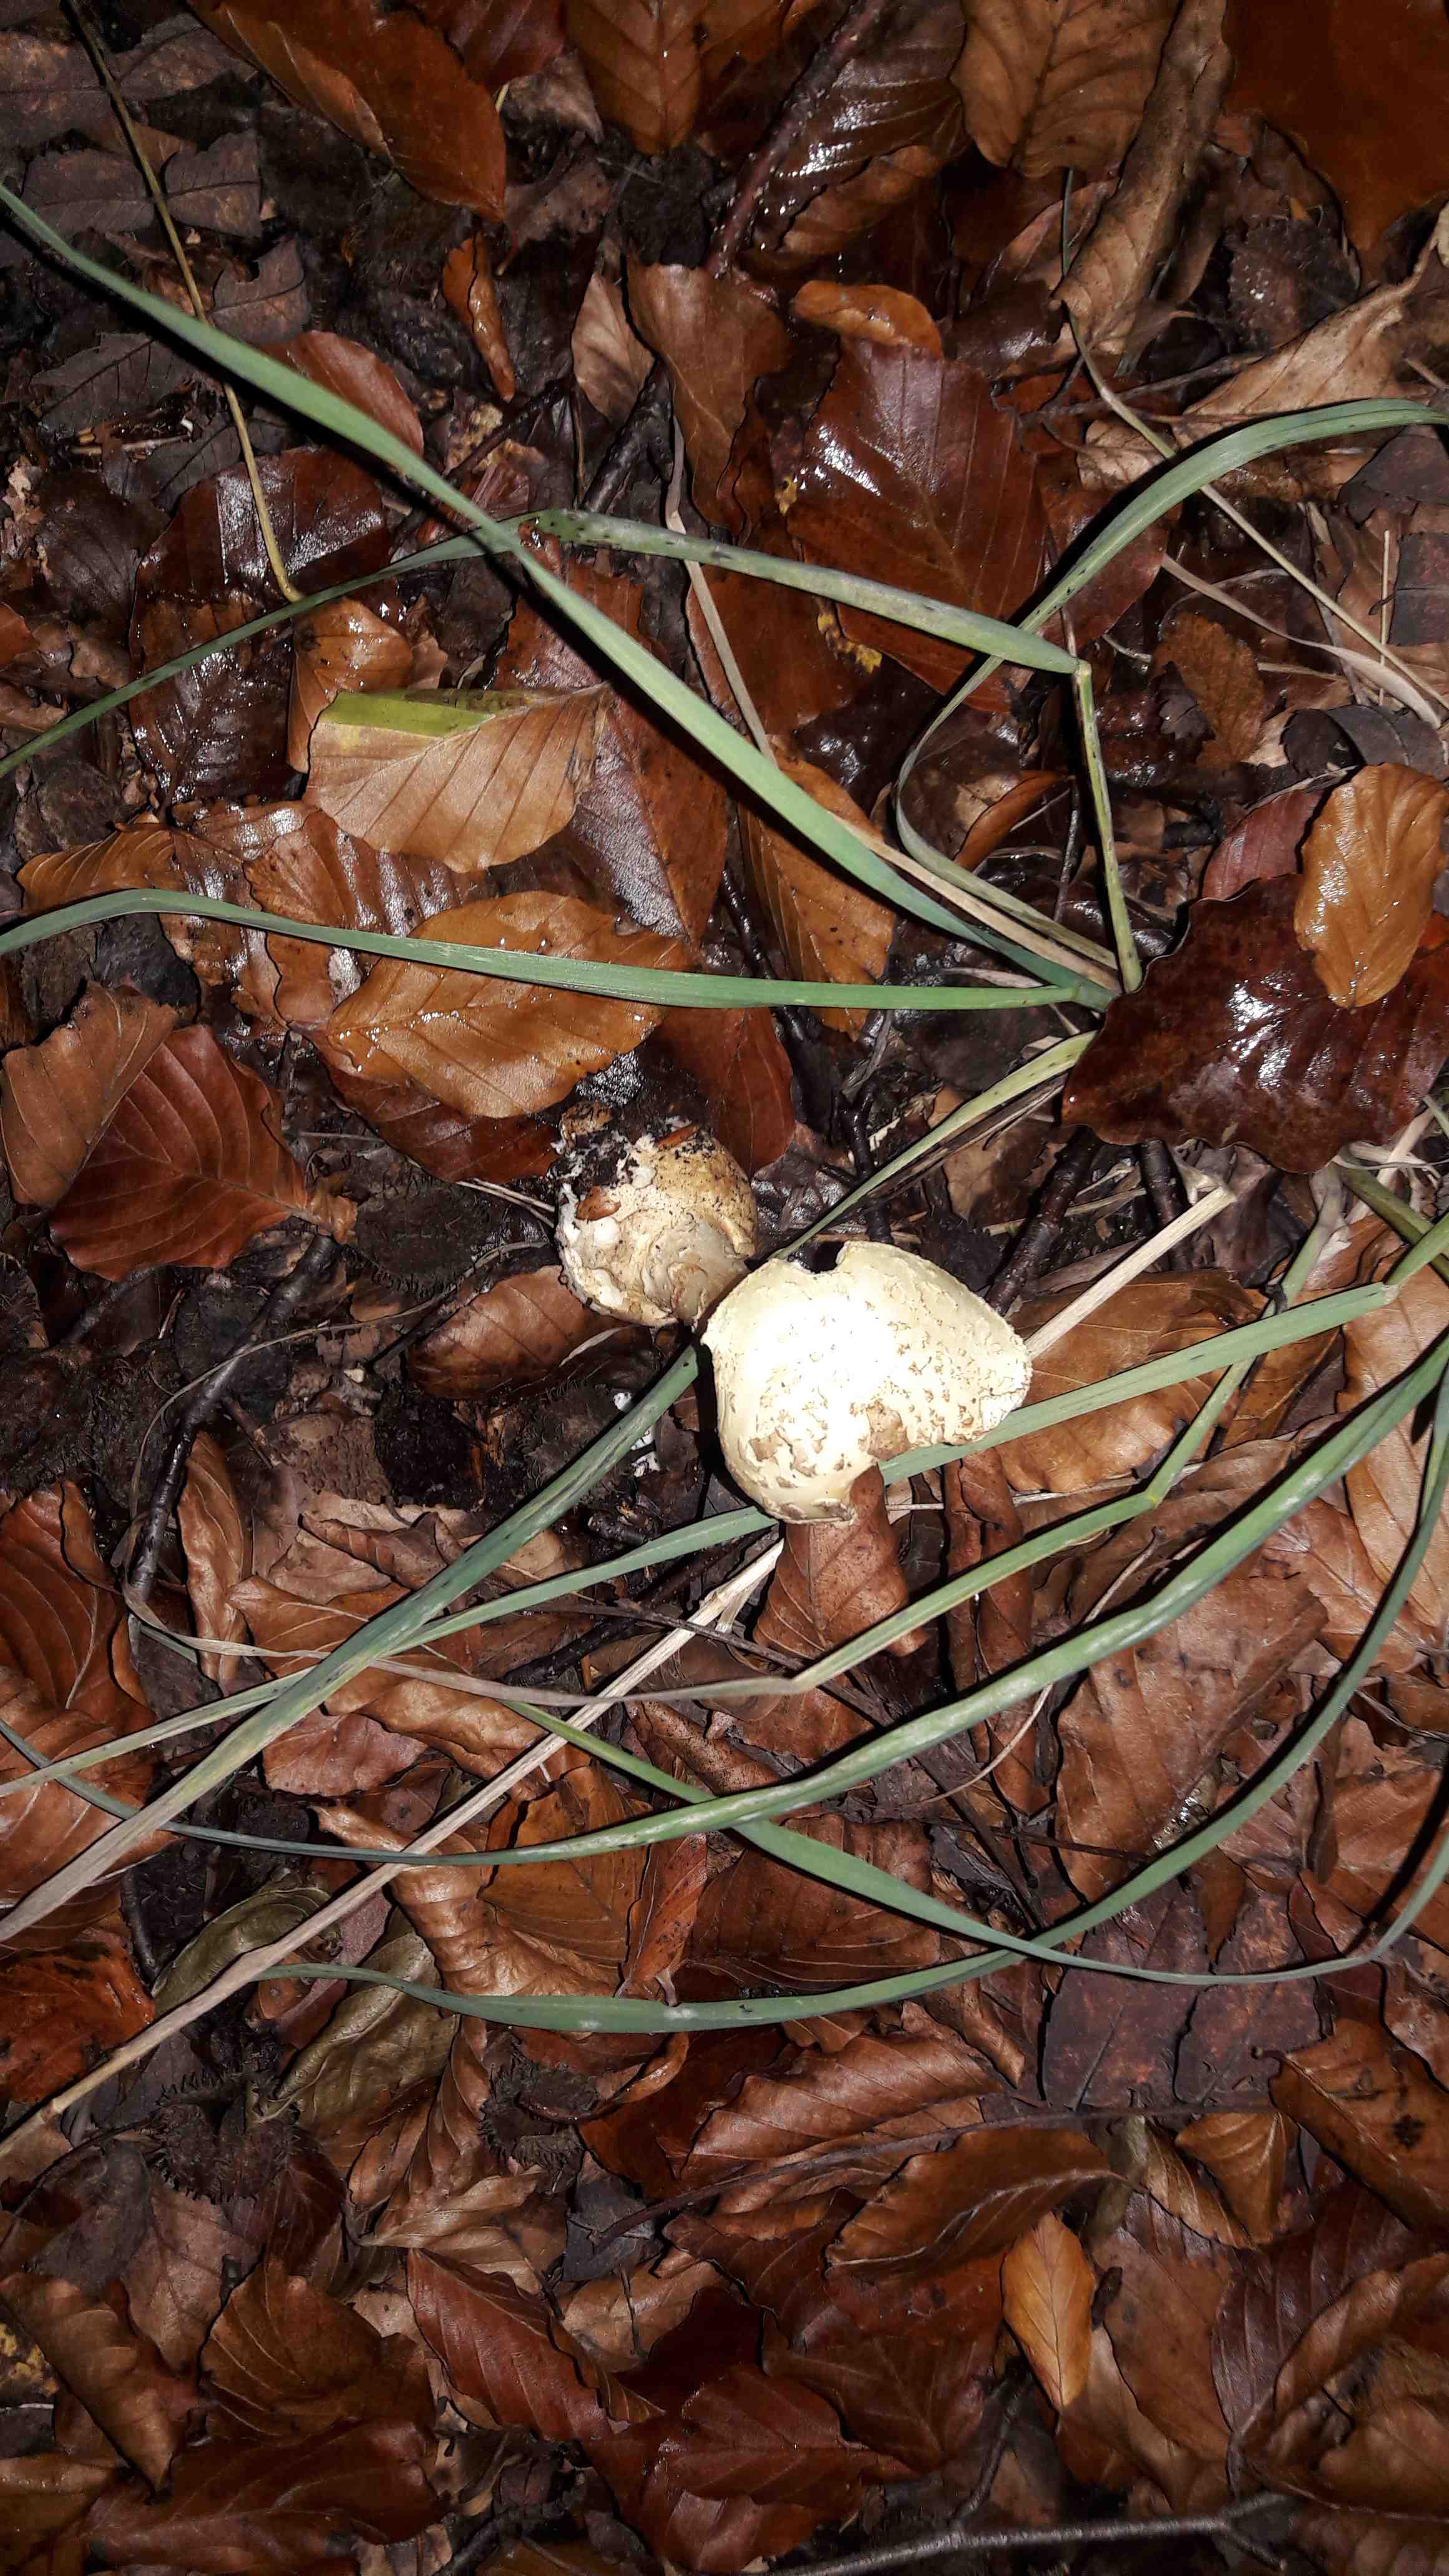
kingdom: Fungi
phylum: Basidiomycota
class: Agaricomycetes
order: Agaricales
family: Amanitaceae
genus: Amanita
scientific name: Amanita citrina
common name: kugleknoldet fluesvamp
